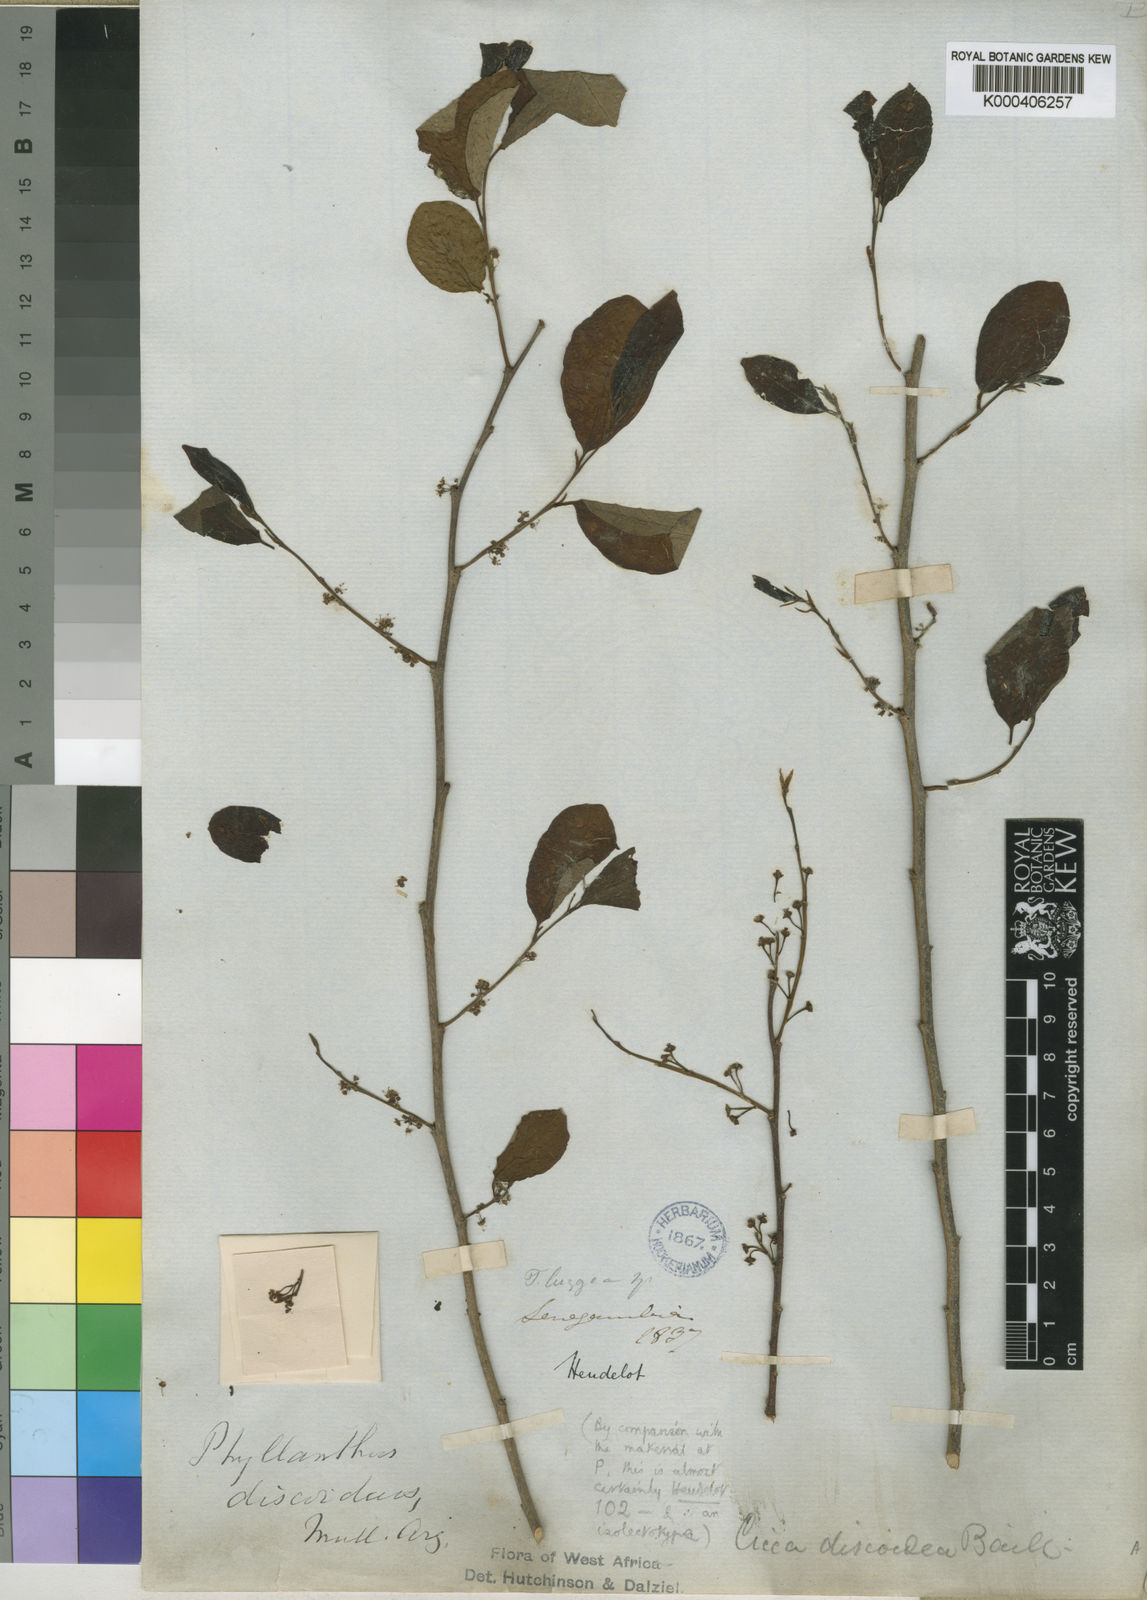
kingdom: Plantae
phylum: Tracheophyta
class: Magnoliopsida
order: Malpighiales
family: Phyllanthaceae
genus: Margaritaria
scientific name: Margaritaria discoidea
